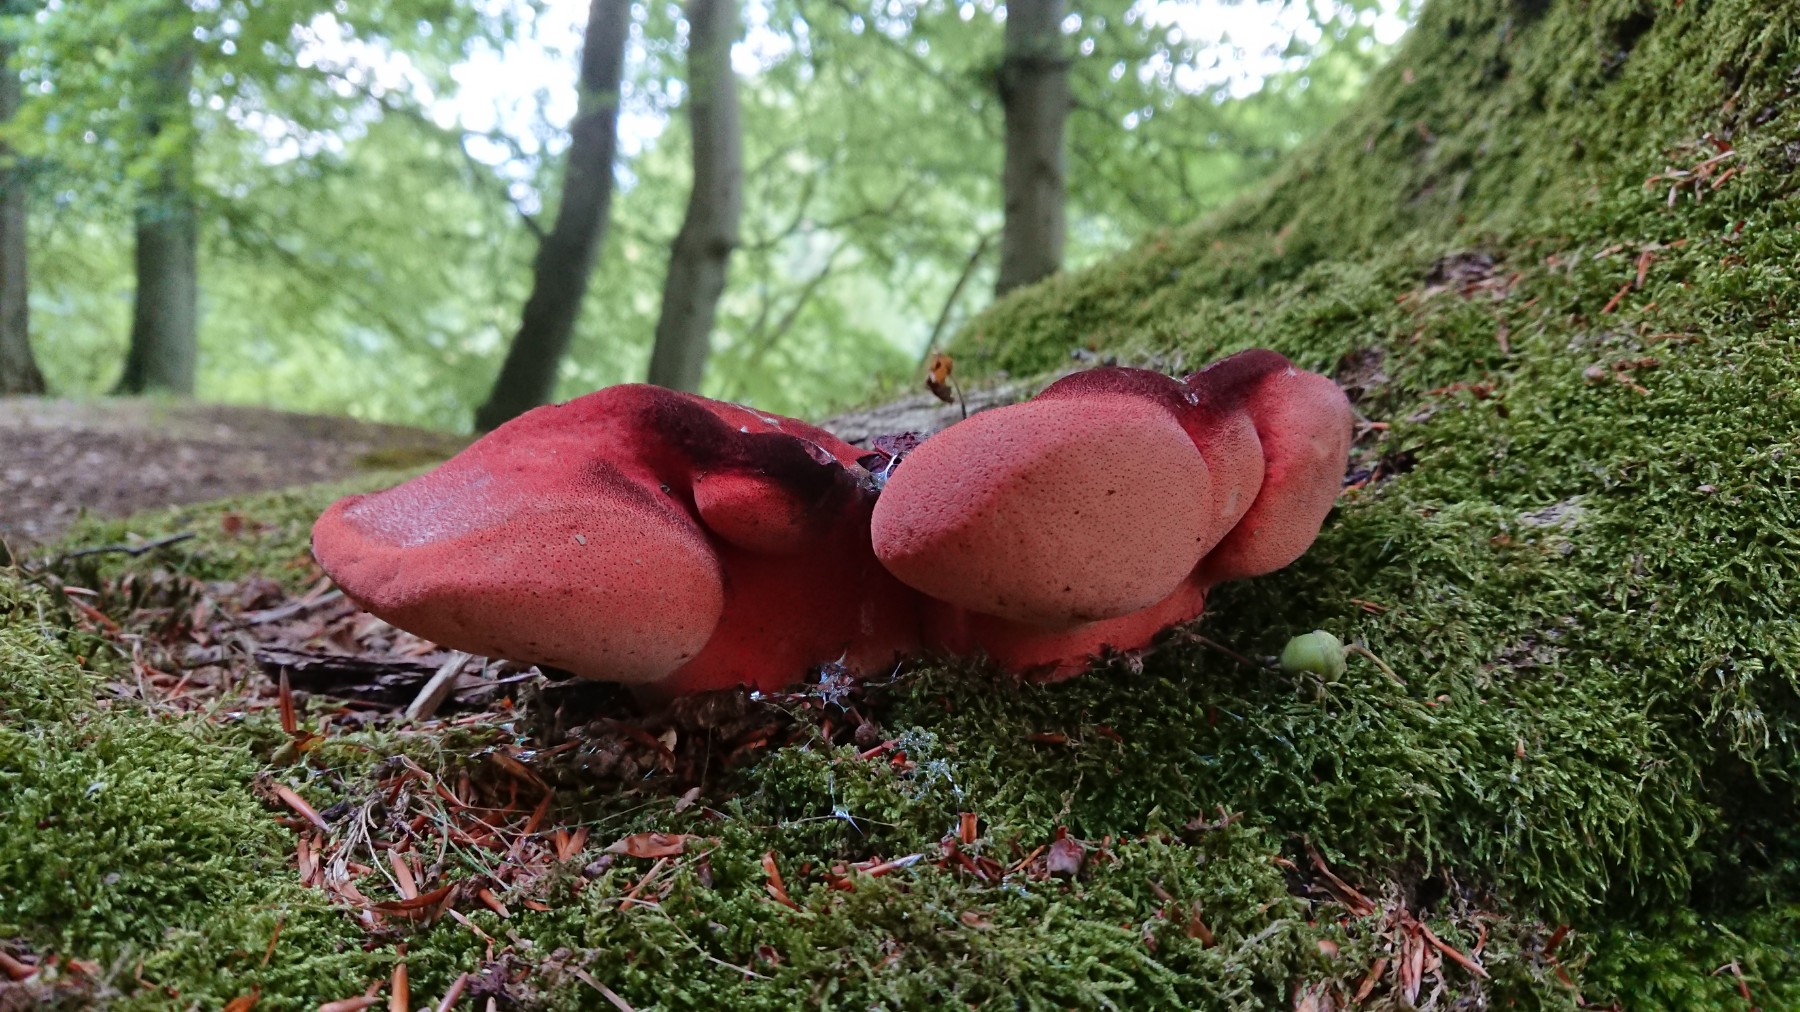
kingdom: Fungi
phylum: Basidiomycota
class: Agaricomycetes
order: Agaricales
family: Fistulinaceae
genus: Fistulina
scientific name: Fistulina hepatica
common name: oksetunge
